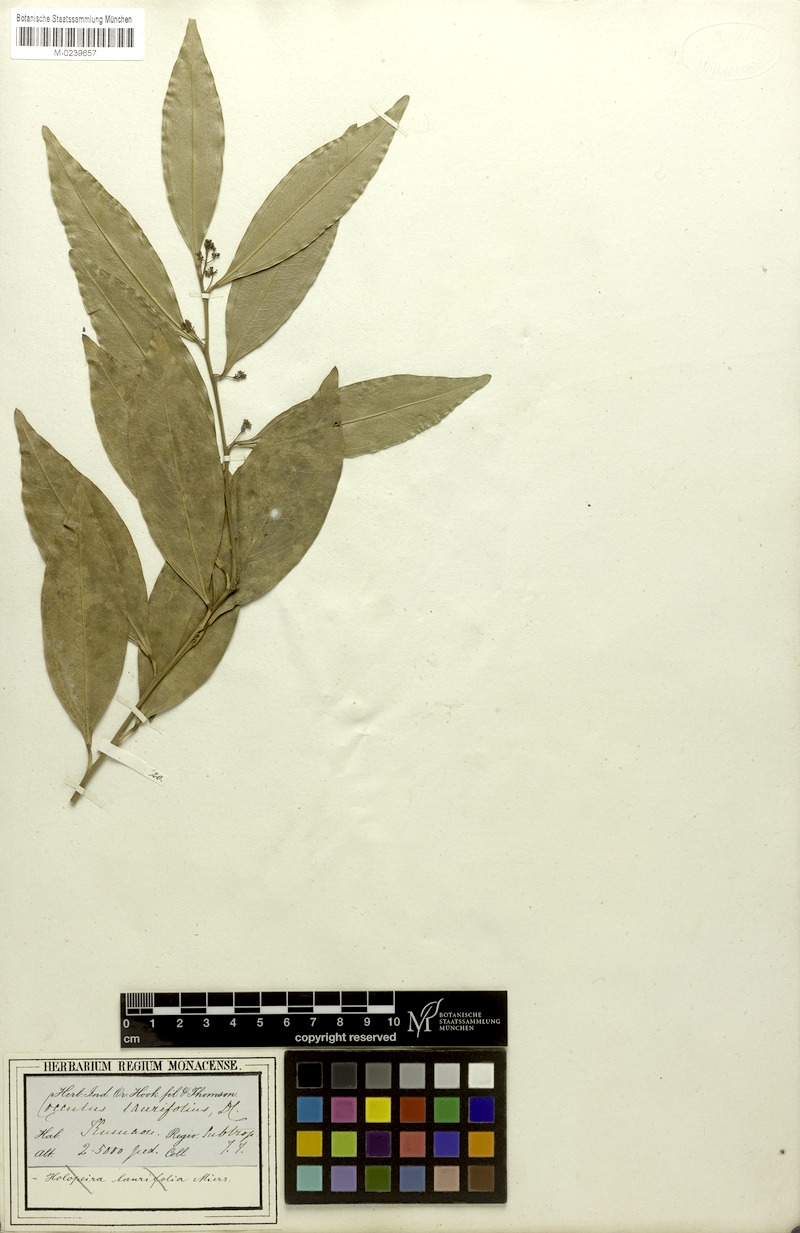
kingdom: Plantae
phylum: Tracheophyta
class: Magnoliopsida
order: Ranunculales
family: Menispermaceae
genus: Cocculus
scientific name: Cocculus laurifolius
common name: Laurel-leaf snailseed
